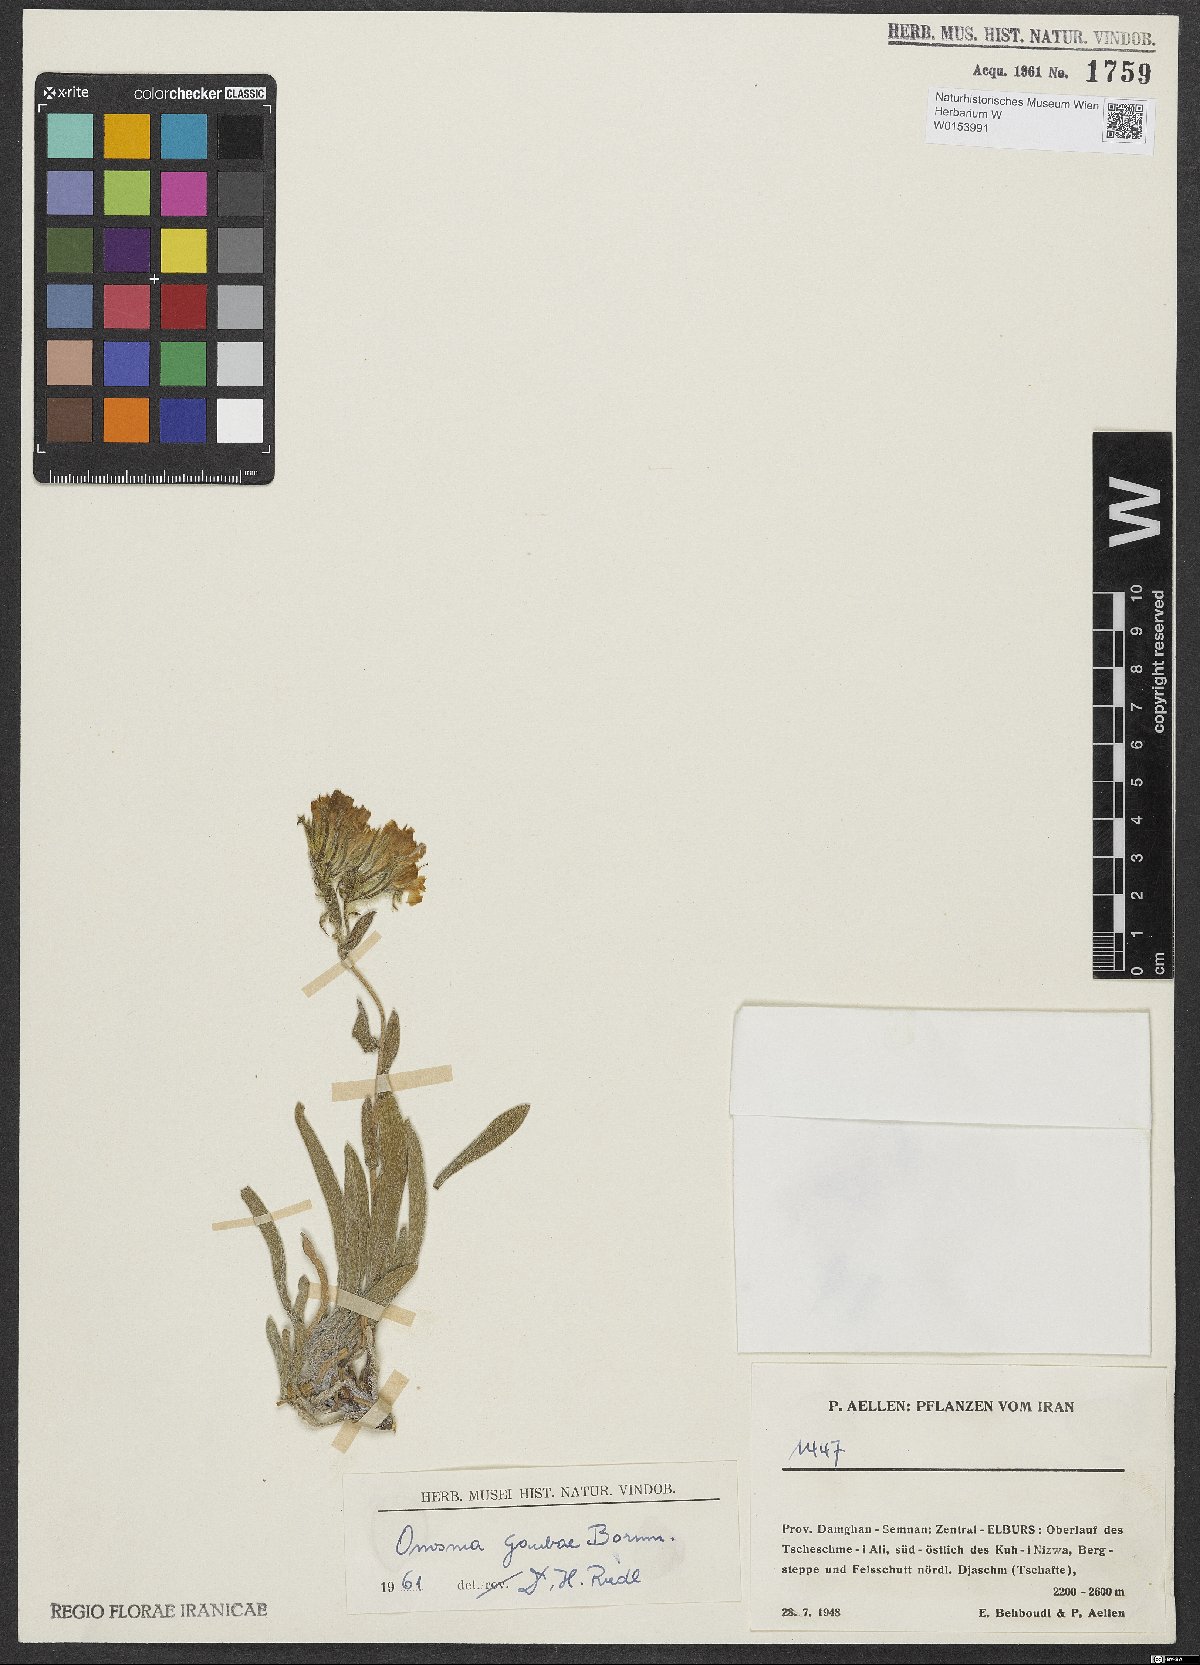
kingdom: Plantae
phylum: Tracheophyta
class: Magnoliopsida
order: Boraginales
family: Boraginaceae
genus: Onosma
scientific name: Onosma gaubae
